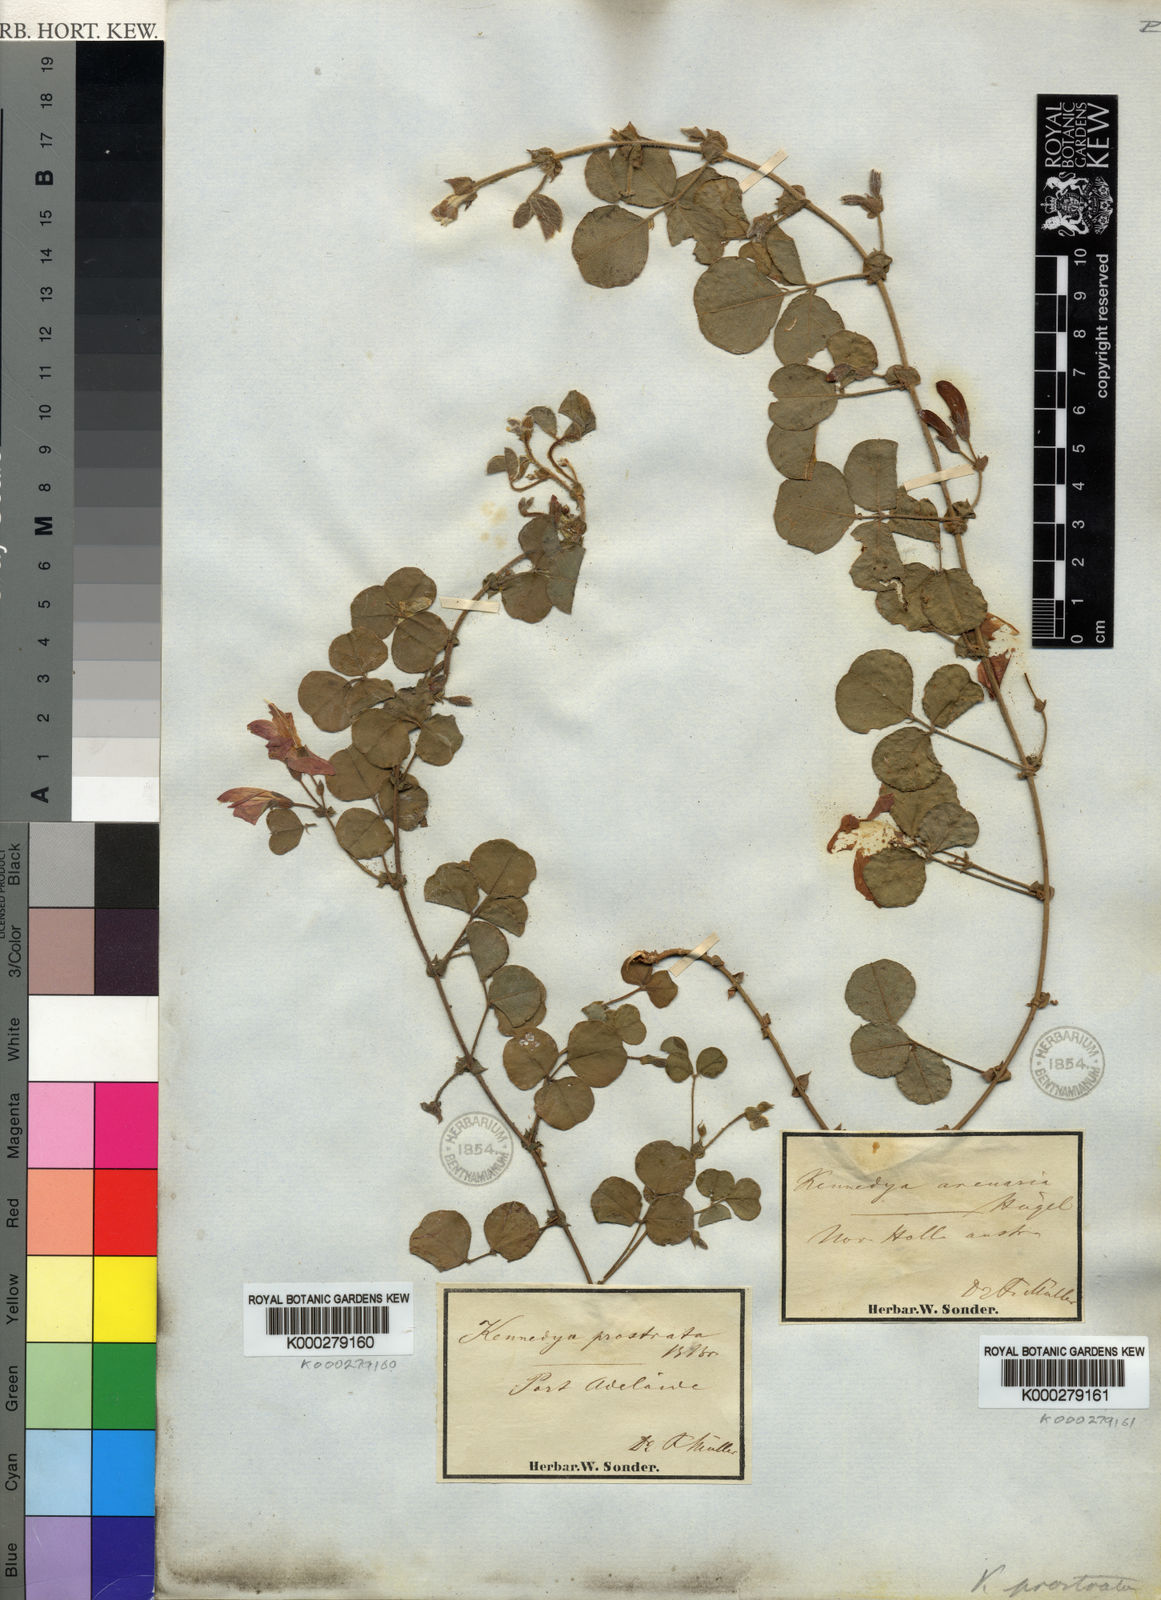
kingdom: Plantae
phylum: Tracheophyta
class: Magnoliopsida
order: Fabales
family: Fabaceae
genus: Kennedia
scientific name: Kennedia prostrata
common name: Running-postman
